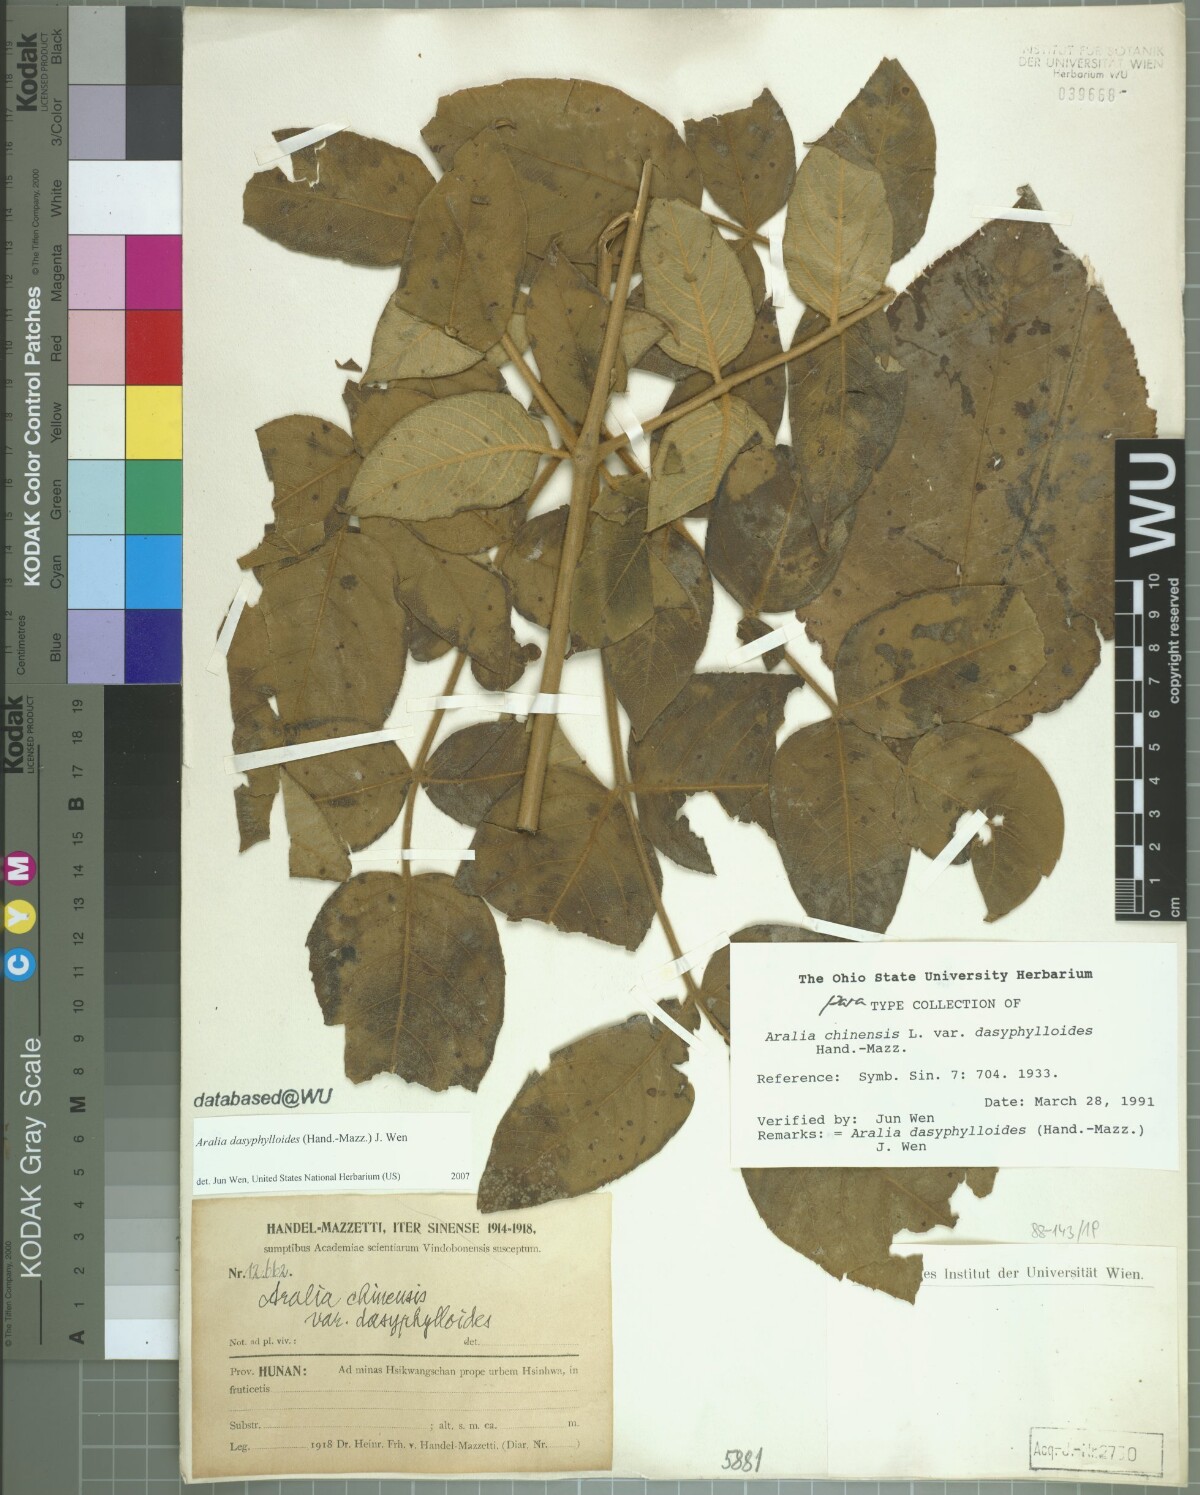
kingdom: Plantae
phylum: Tracheophyta
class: Magnoliopsida
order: Apiales
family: Araliaceae
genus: Aralia
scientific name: Aralia dasyphylloides
